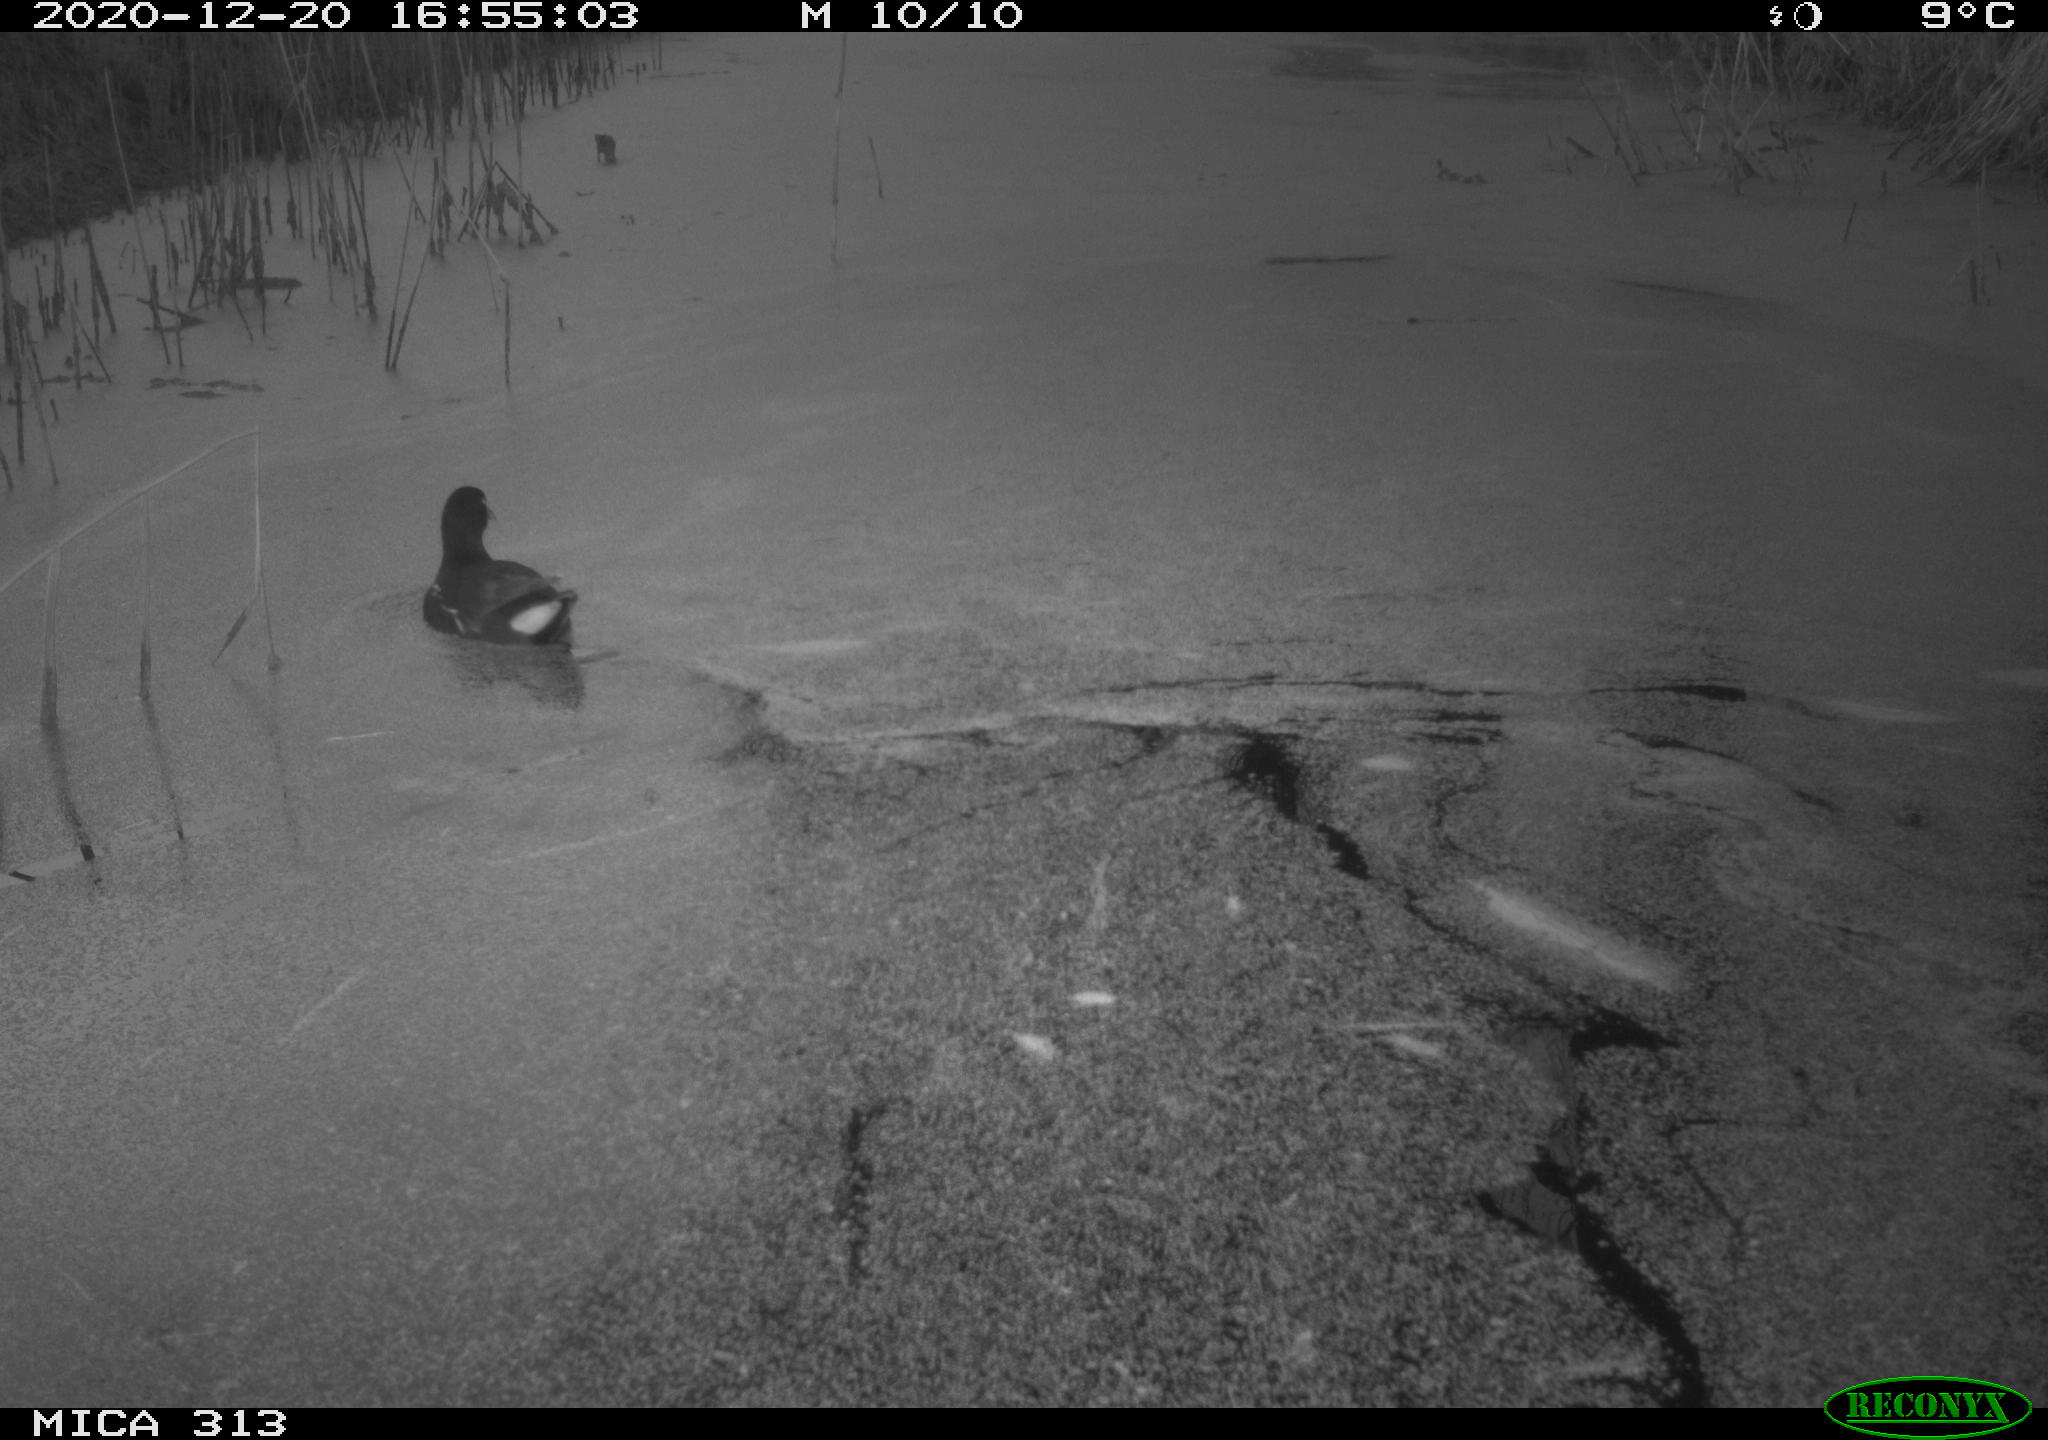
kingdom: Animalia
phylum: Chordata
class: Aves
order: Gruiformes
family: Rallidae
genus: Gallinula
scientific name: Gallinula chloropus
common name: Common moorhen
